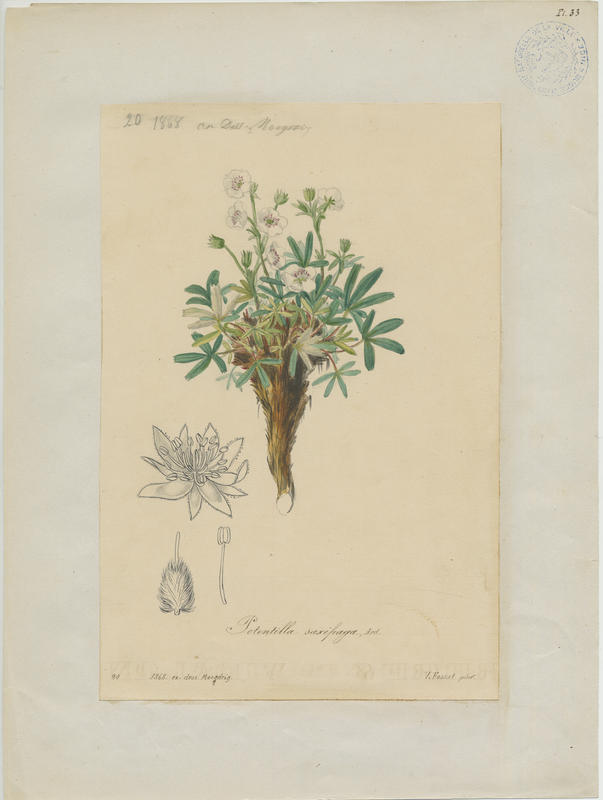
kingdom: Plantae
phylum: Tracheophyta
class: Magnoliopsida
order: Rosales
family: Rosaceae
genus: Potentilla
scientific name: Potentilla saxifraga
